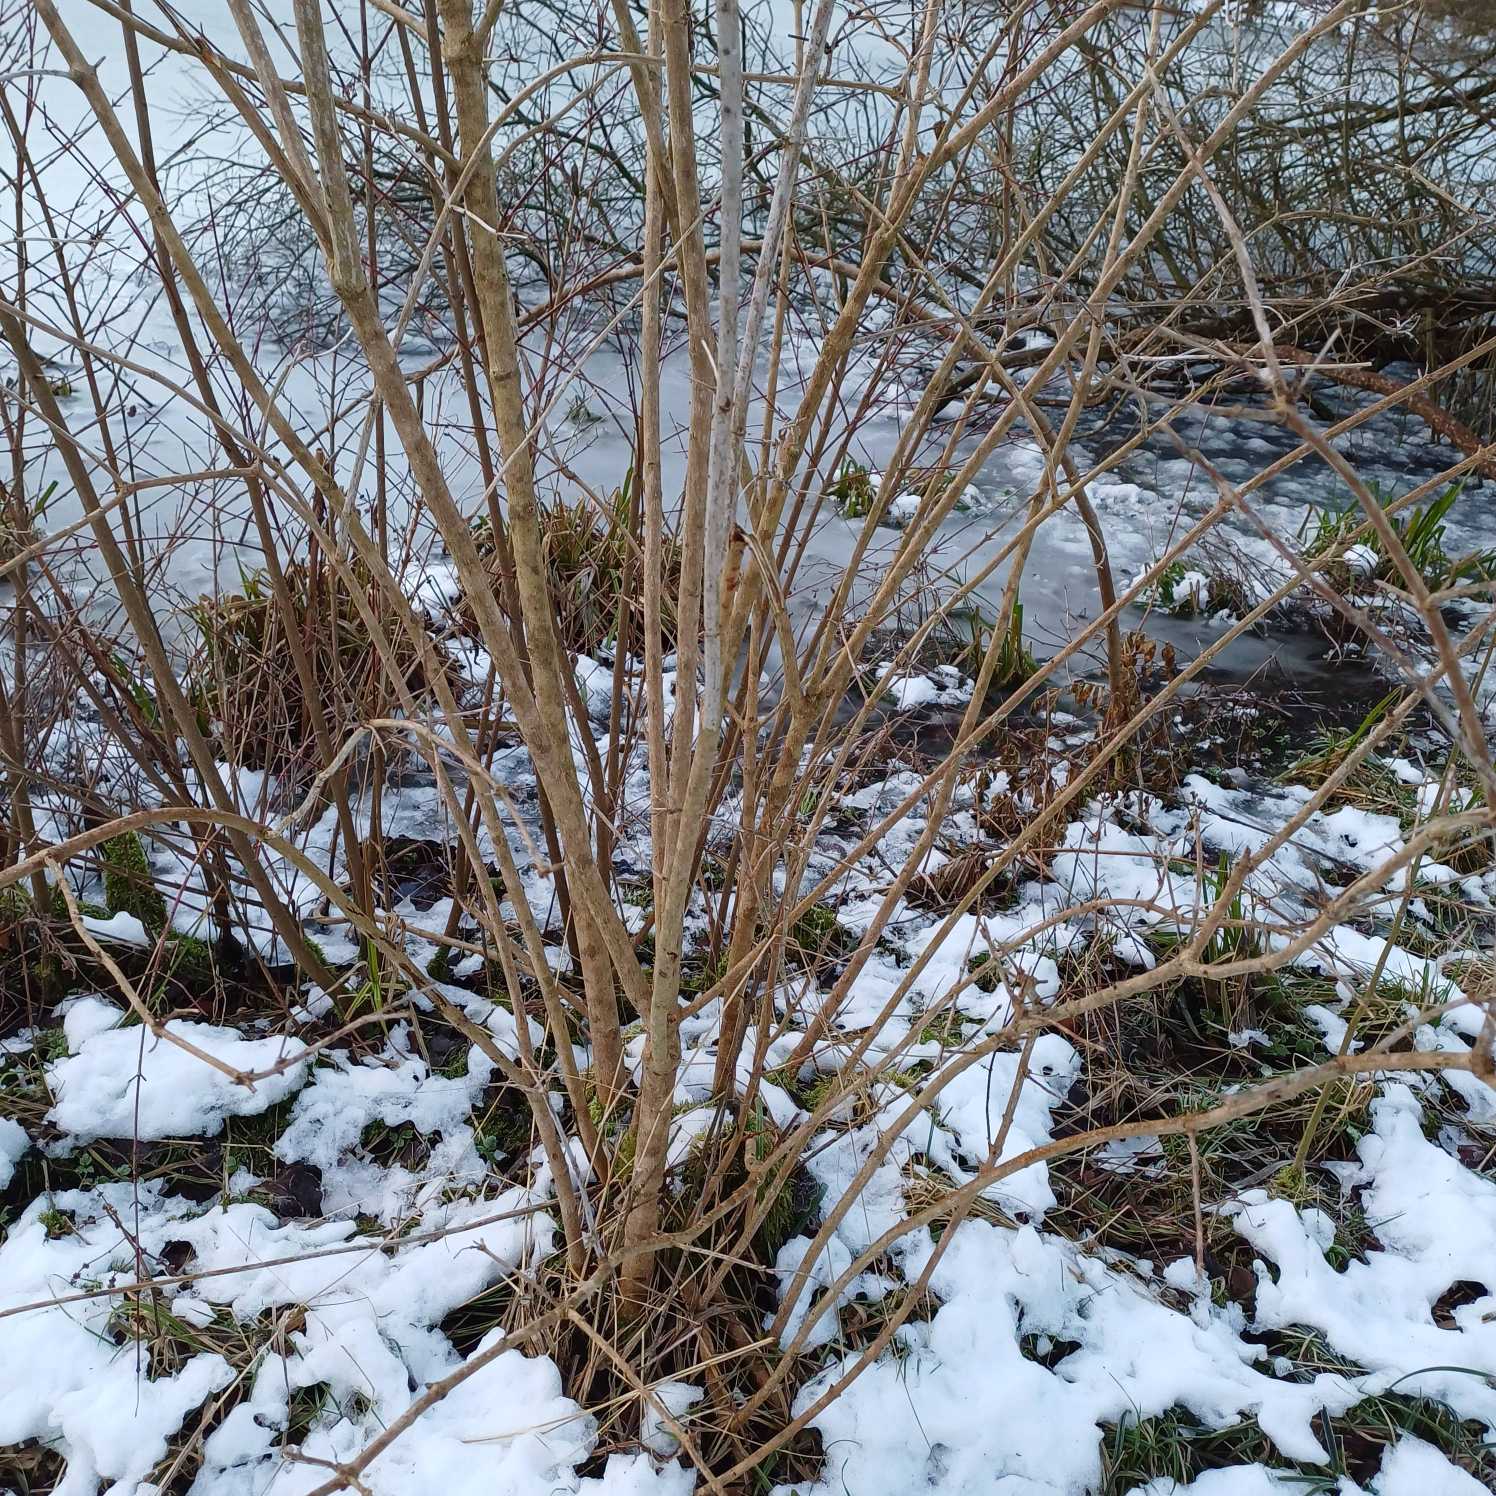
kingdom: Plantae
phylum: Tracheophyta
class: Magnoliopsida
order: Dipsacales
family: Viburnaceae
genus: Viburnum
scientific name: Viburnum opulus
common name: Kvalkved
